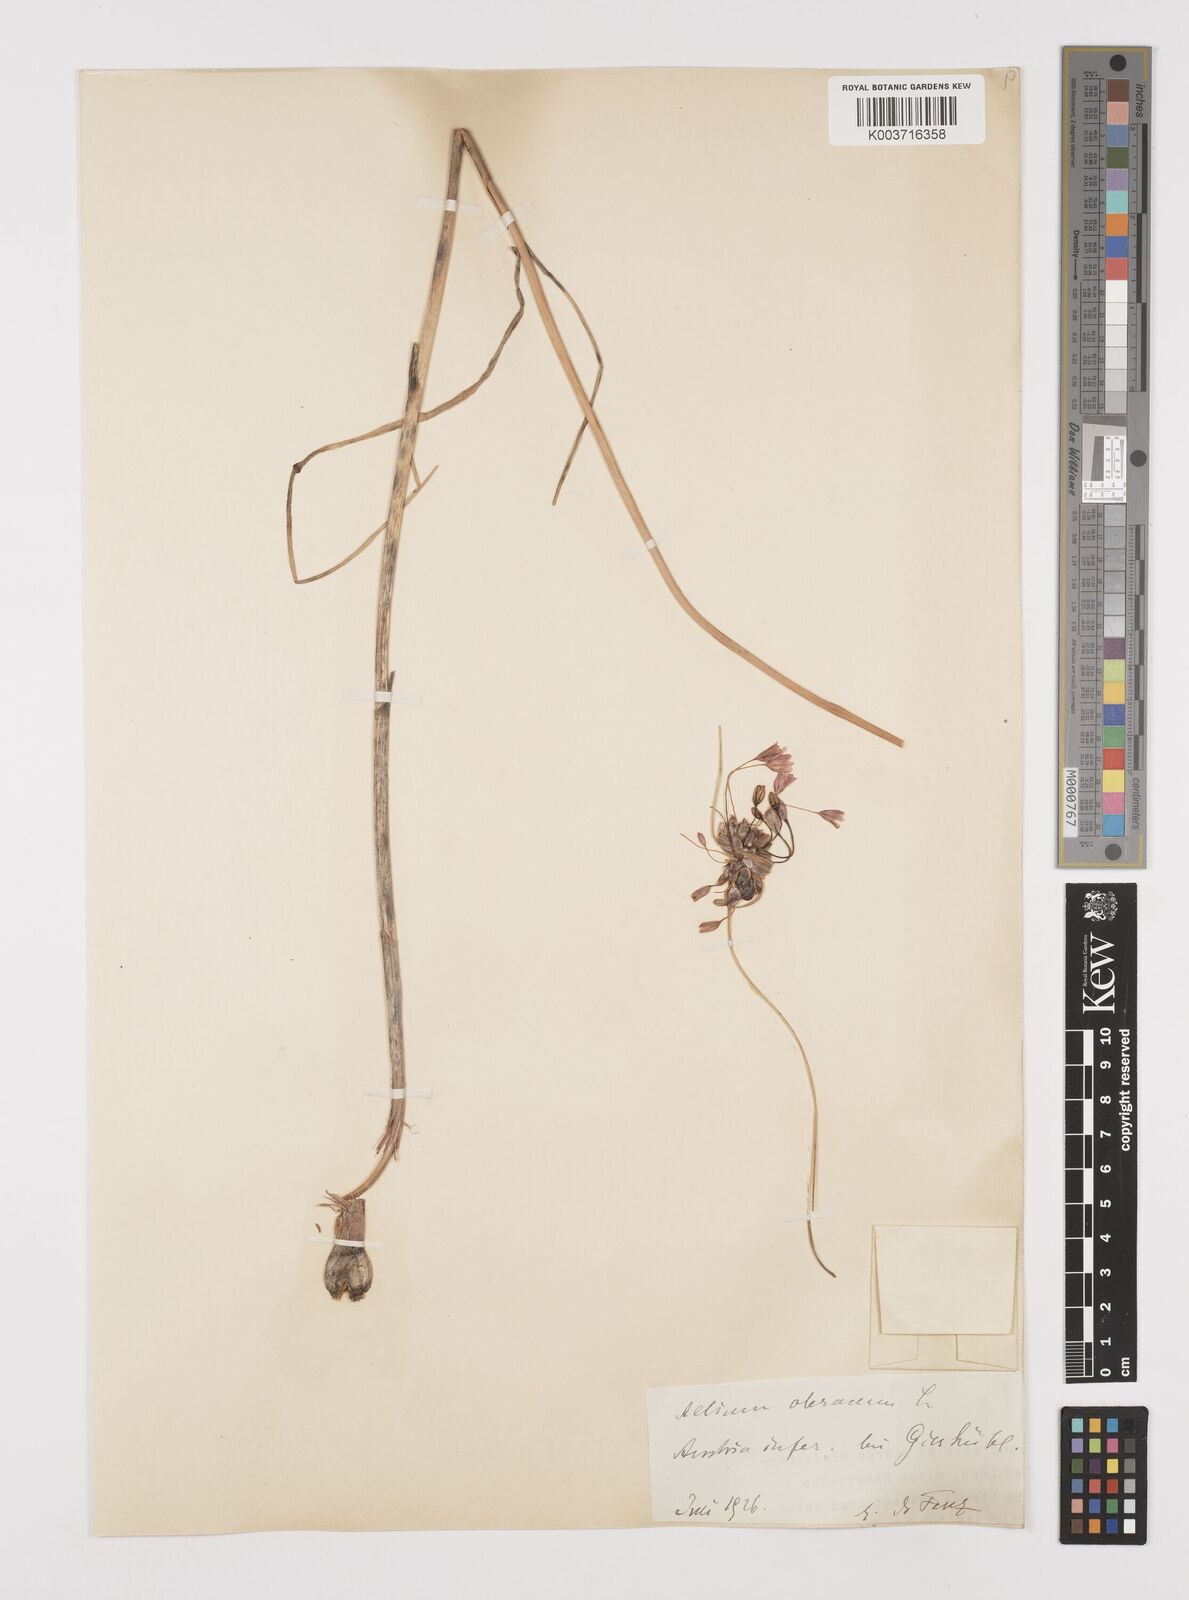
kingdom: Plantae
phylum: Tracheophyta
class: Liliopsida
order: Asparagales
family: Amaryllidaceae
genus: Allium
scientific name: Allium oleraceum
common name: Field garlic
